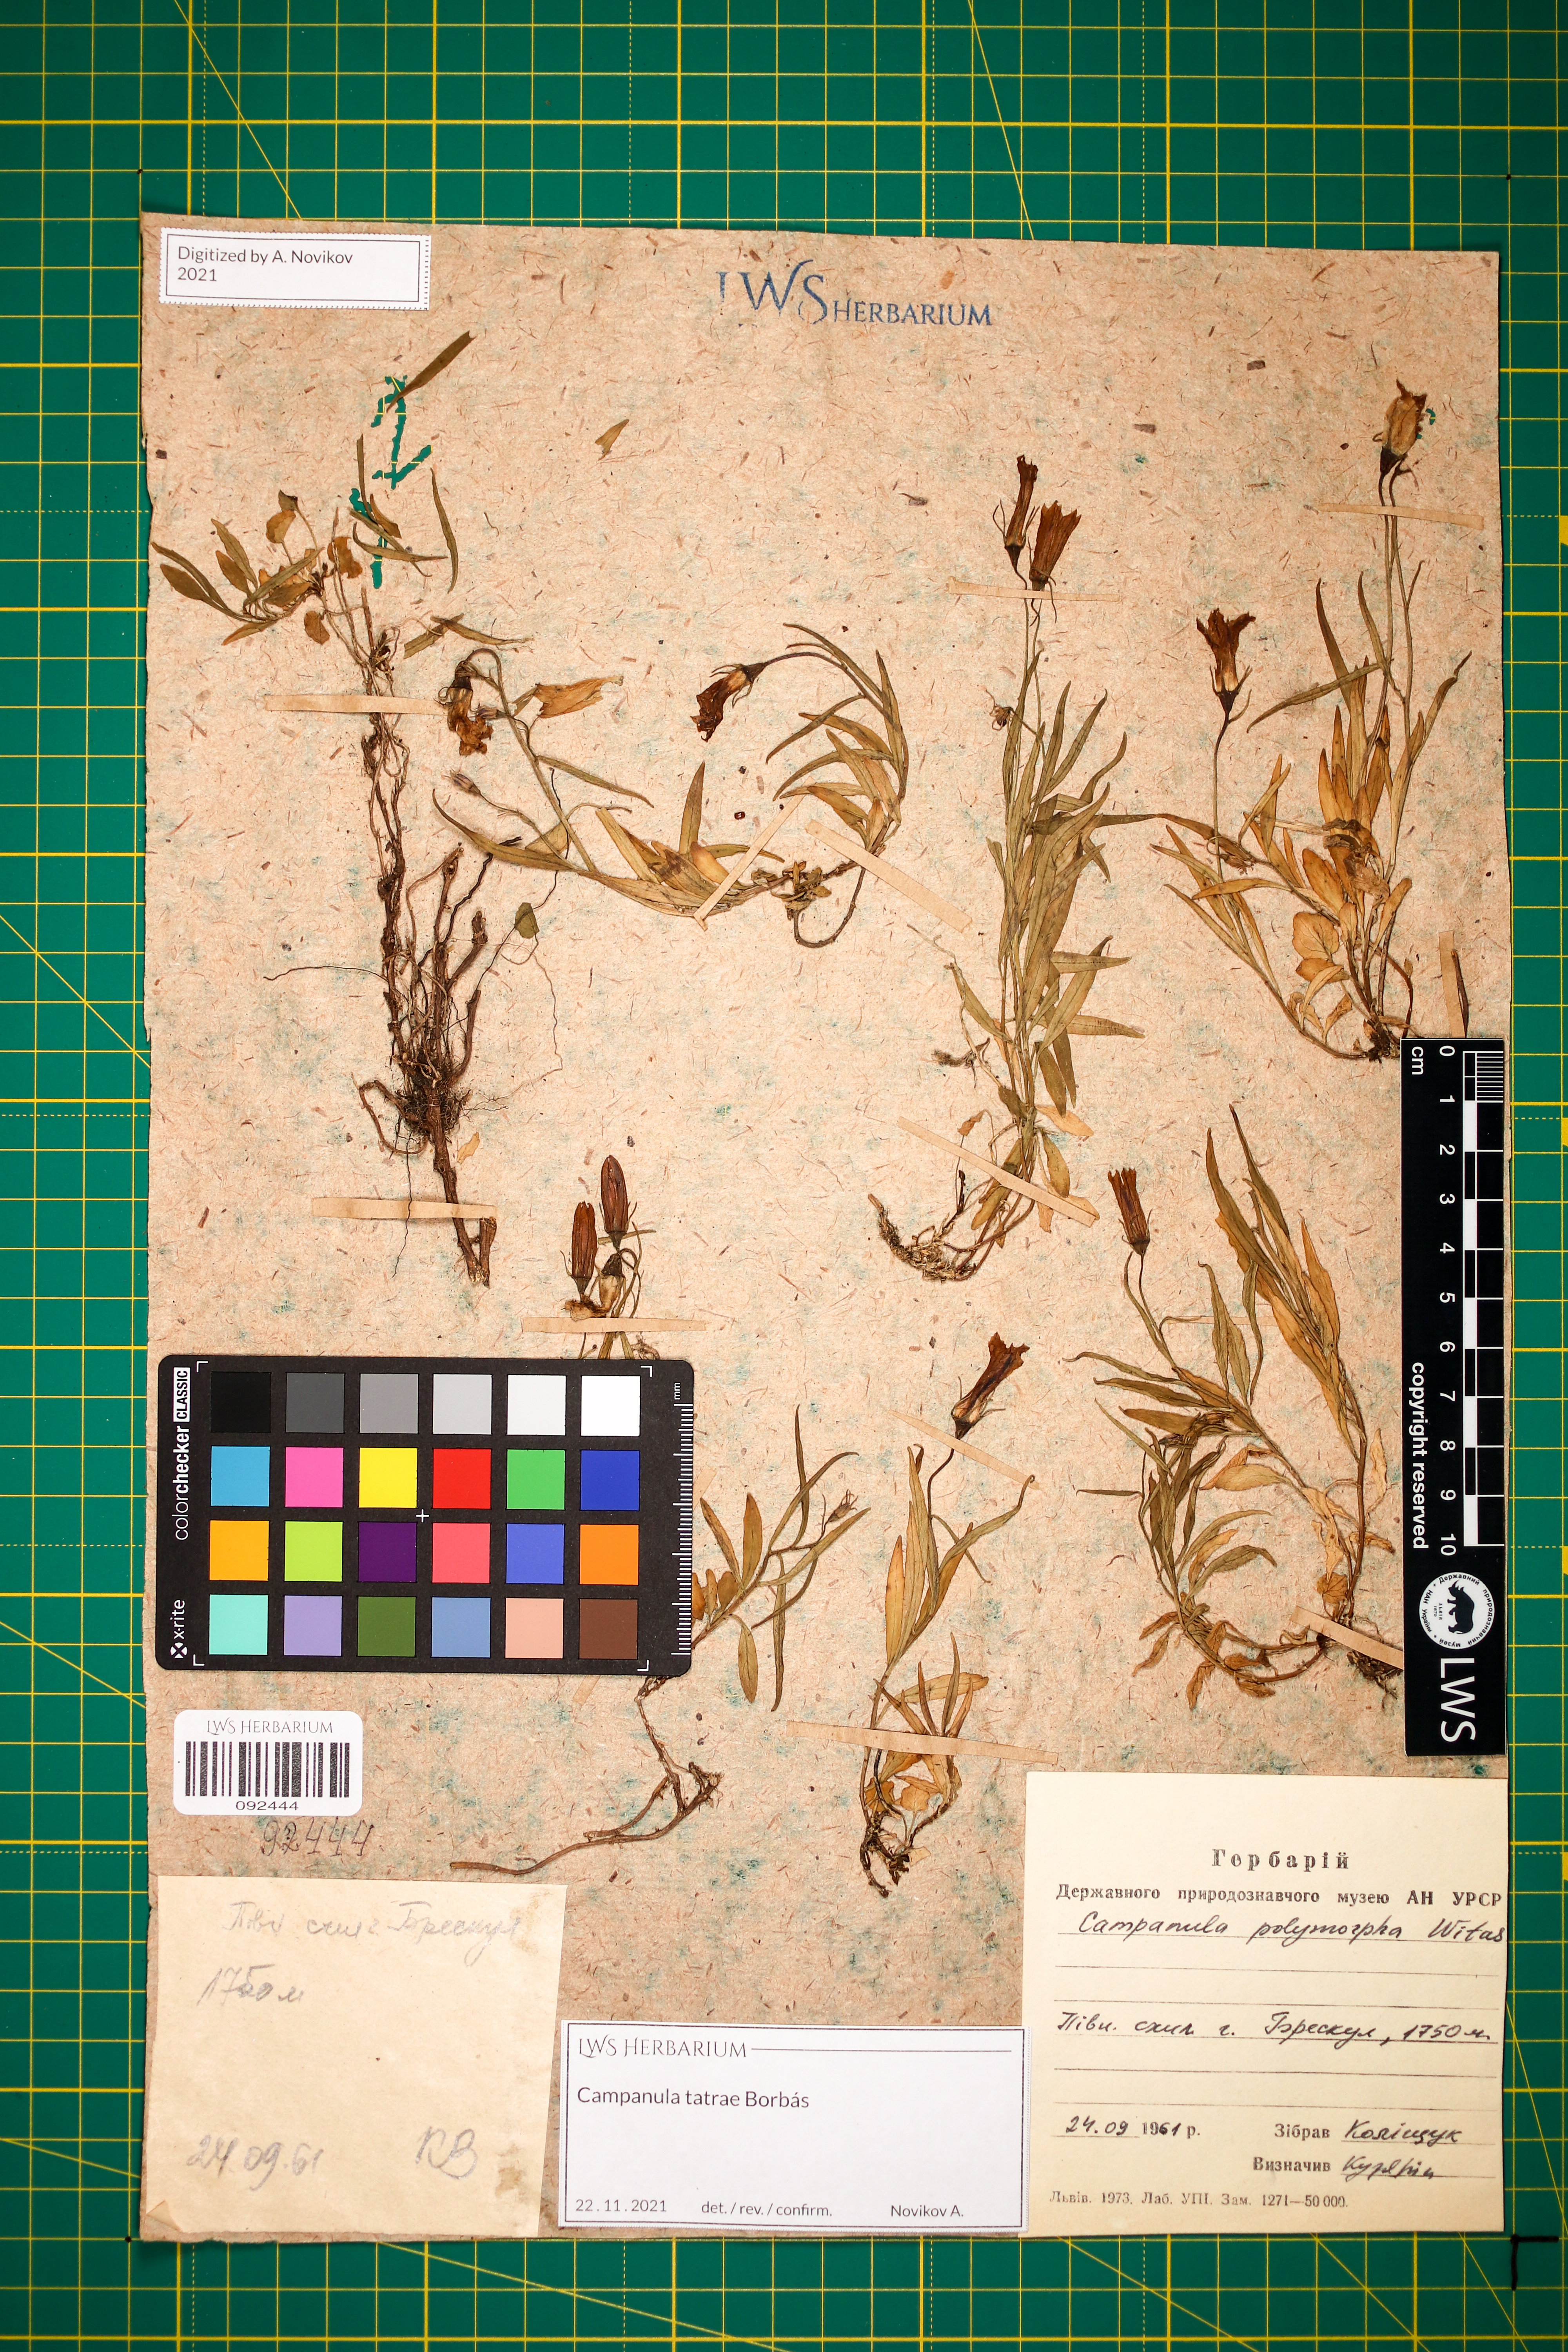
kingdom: Plantae
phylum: Tracheophyta
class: Magnoliopsida
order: Asterales
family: Campanulaceae
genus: Campanula
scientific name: Campanula tatrae
